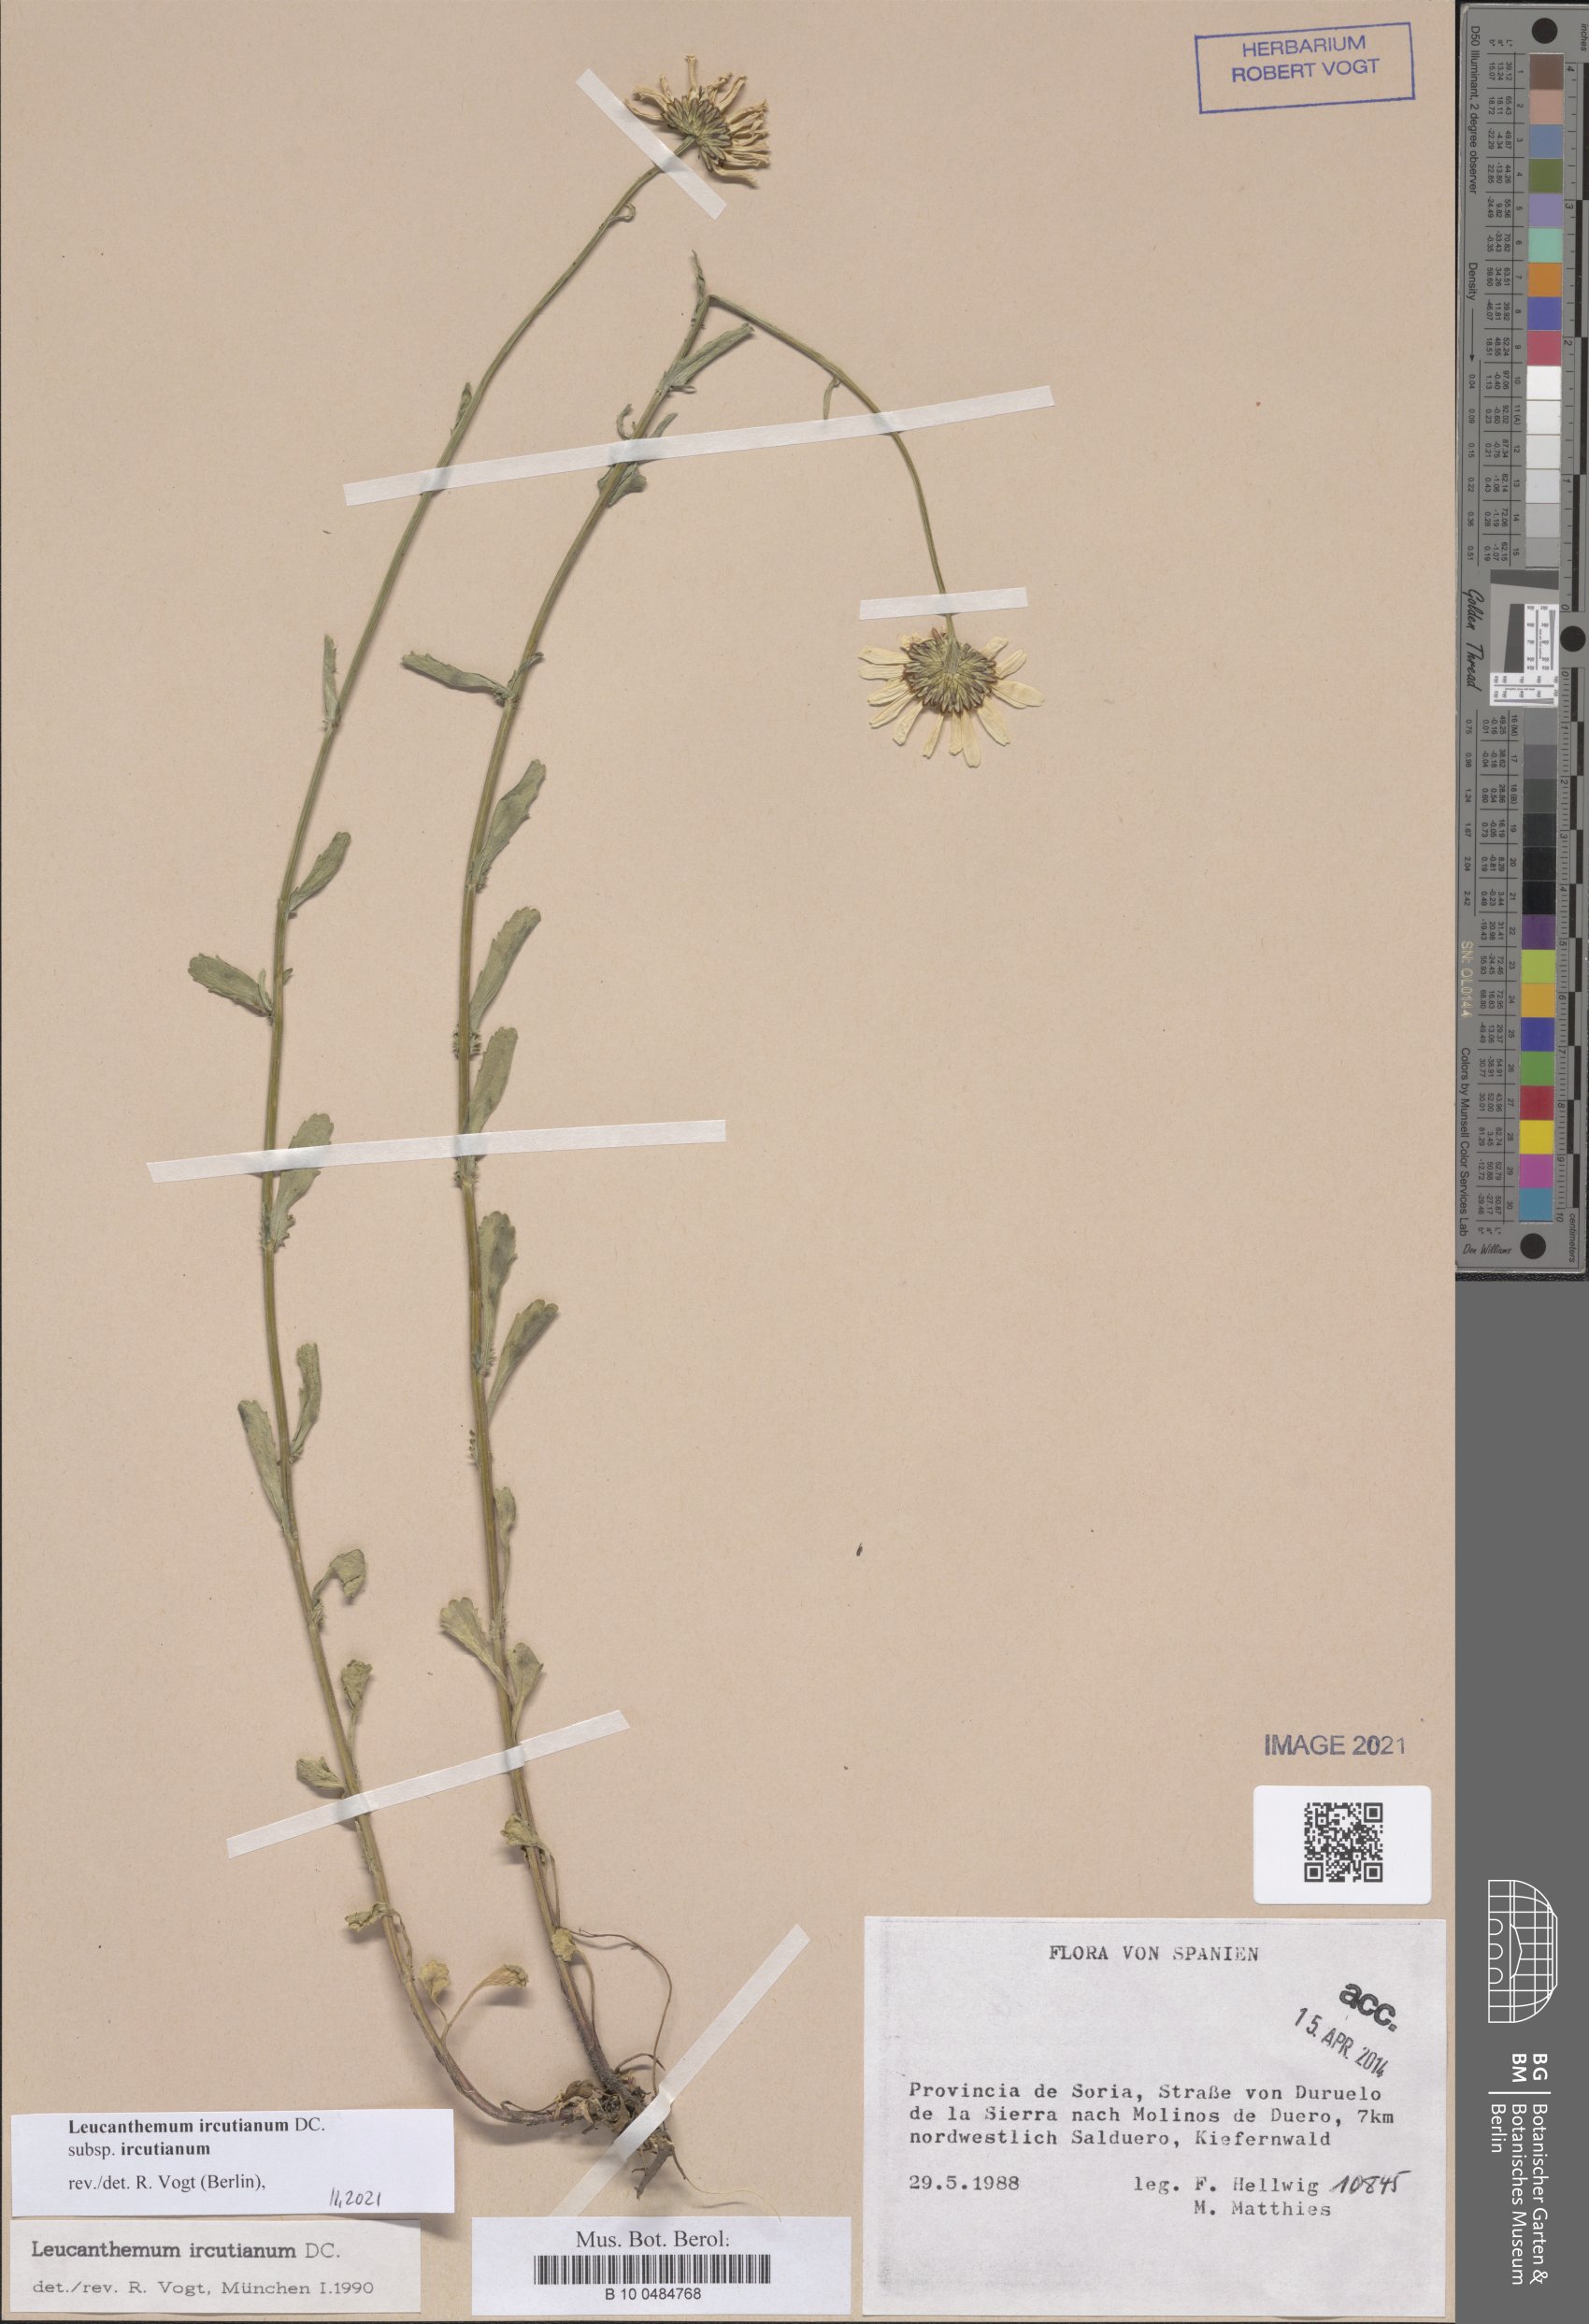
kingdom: Plantae
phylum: Tracheophyta
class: Magnoliopsida
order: Asterales
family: Asteraceae
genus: Leucanthemum
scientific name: Leucanthemum ircutianum
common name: Daisy
